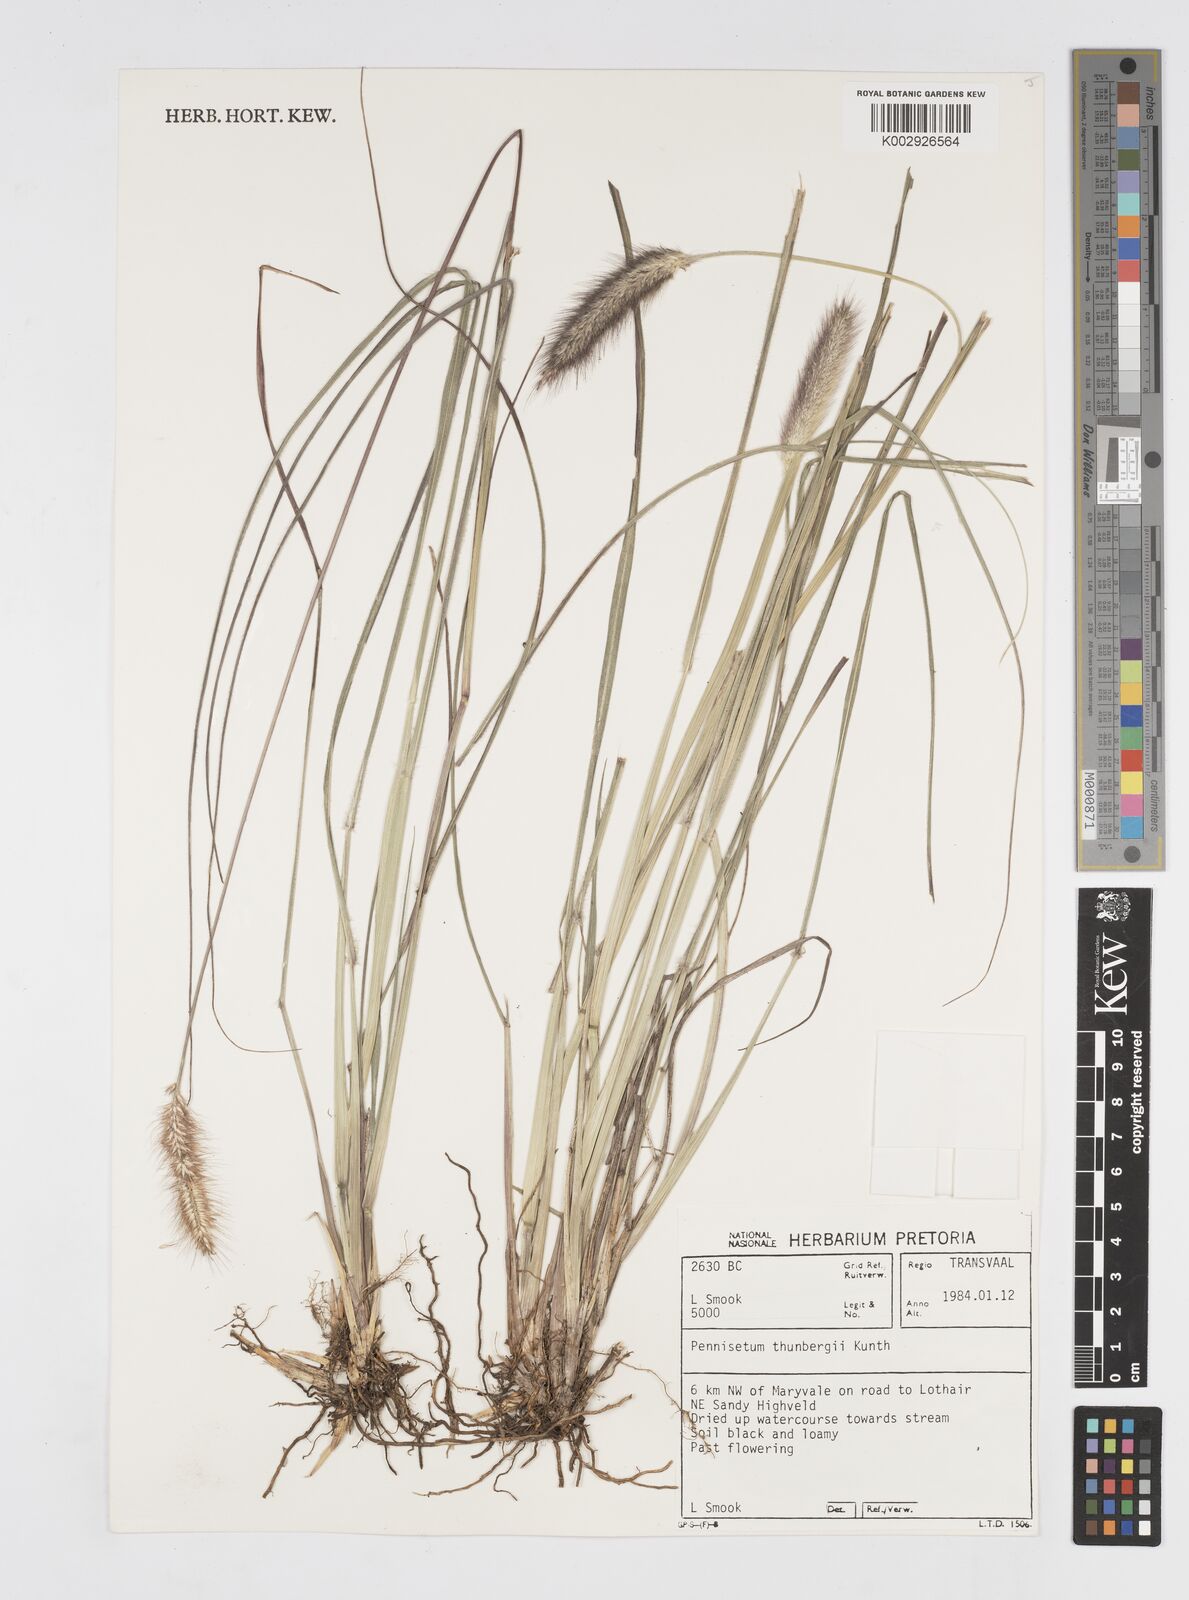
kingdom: Plantae
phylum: Tracheophyta
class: Liliopsida
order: Poales
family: Poaceae
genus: Cenchrus
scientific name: Cenchrus geniculatus
